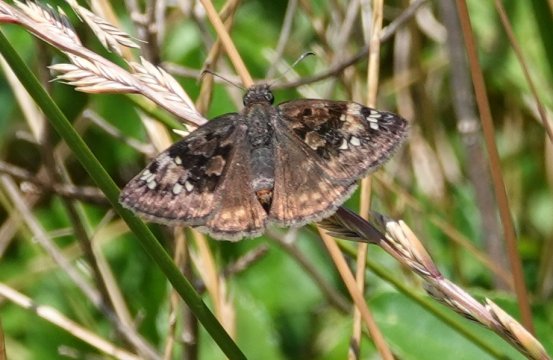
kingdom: Animalia
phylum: Arthropoda
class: Insecta
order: Lepidoptera
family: Hesperiidae
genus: Gesta
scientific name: Gesta
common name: Horace's Duskywing
